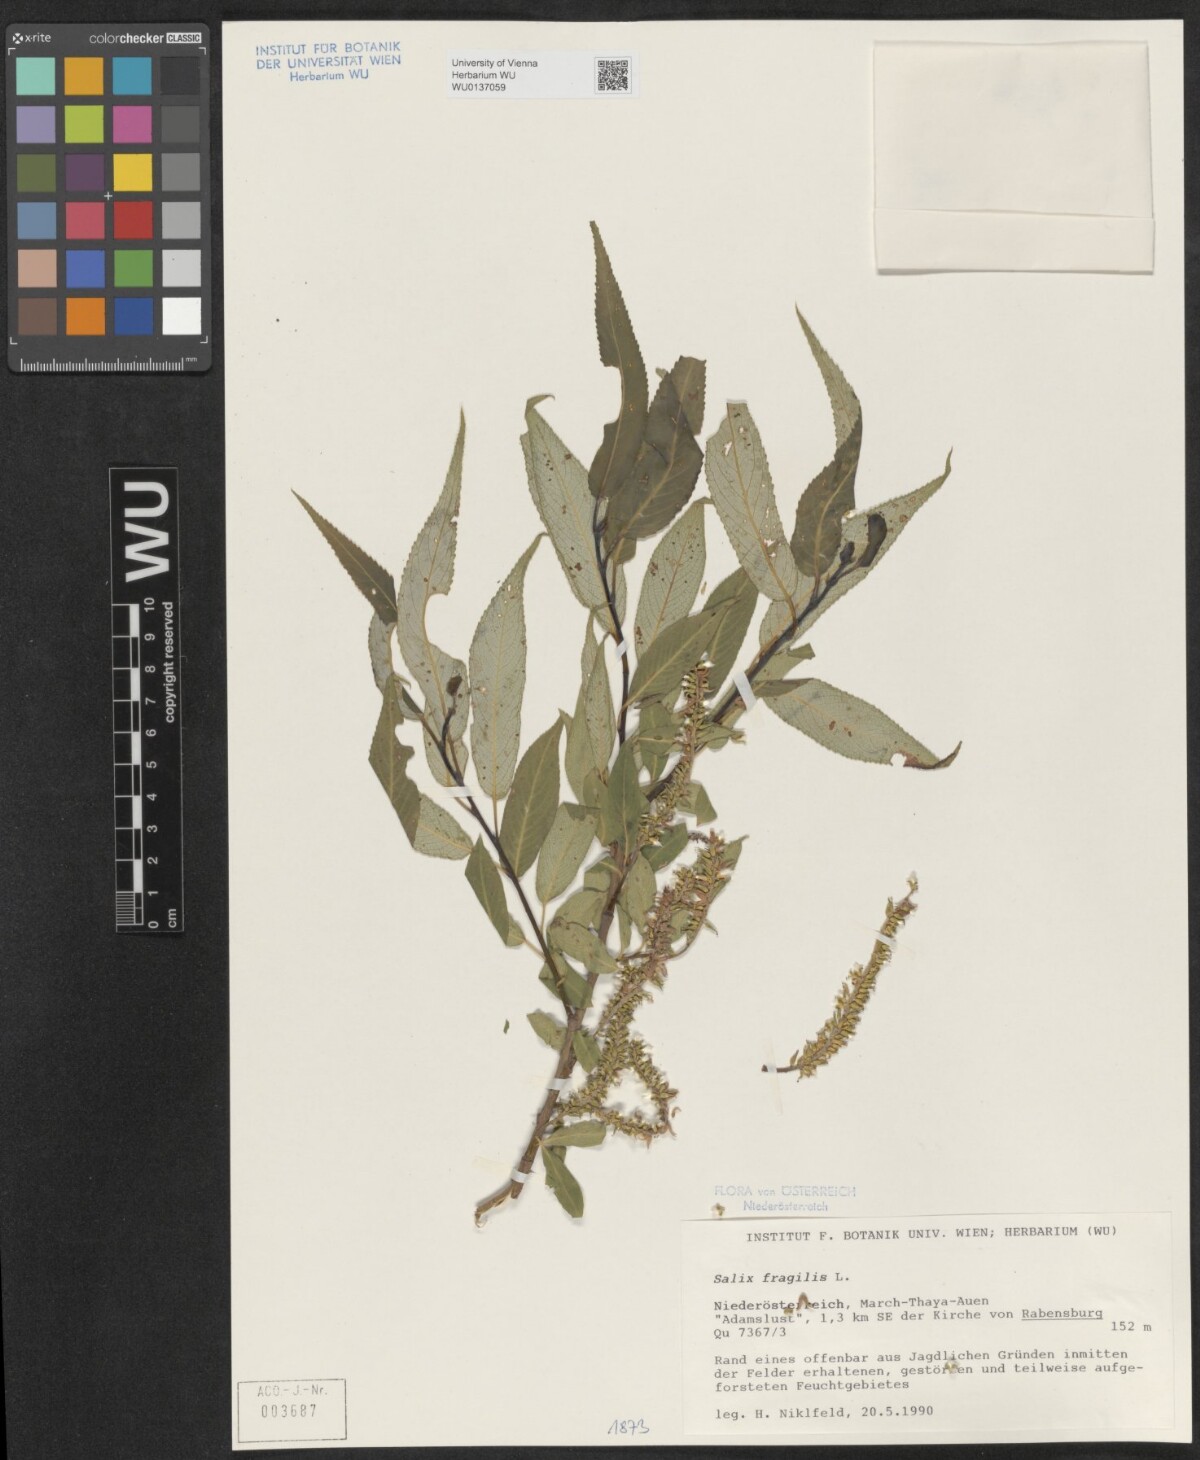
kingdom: Plantae
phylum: Tracheophyta
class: Magnoliopsida
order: Malpighiales
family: Salicaceae
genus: Salix
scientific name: Salix fragilis
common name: Crack willow
